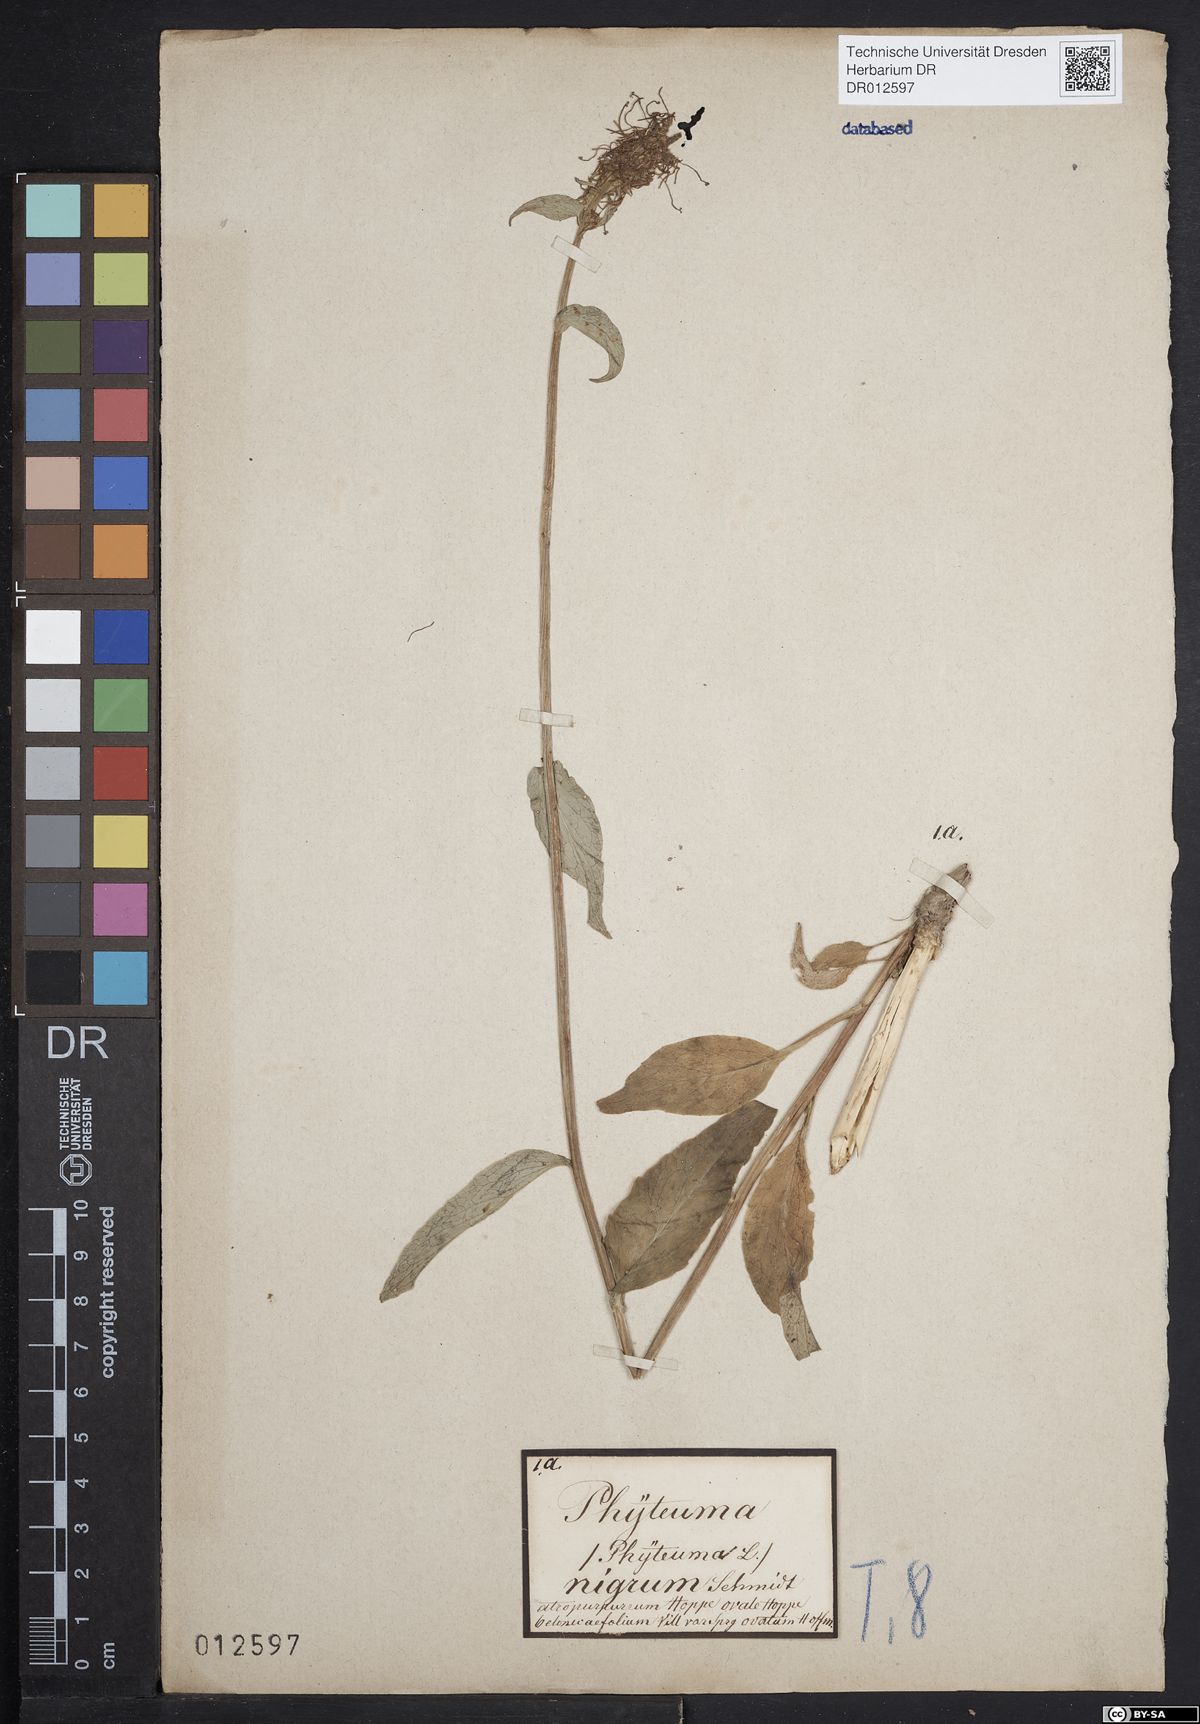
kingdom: Plantae
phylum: Tracheophyta
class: Magnoliopsida
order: Asterales
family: Campanulaceae
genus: Phyteuma
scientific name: Phyteuma nigrum
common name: Black rampion
